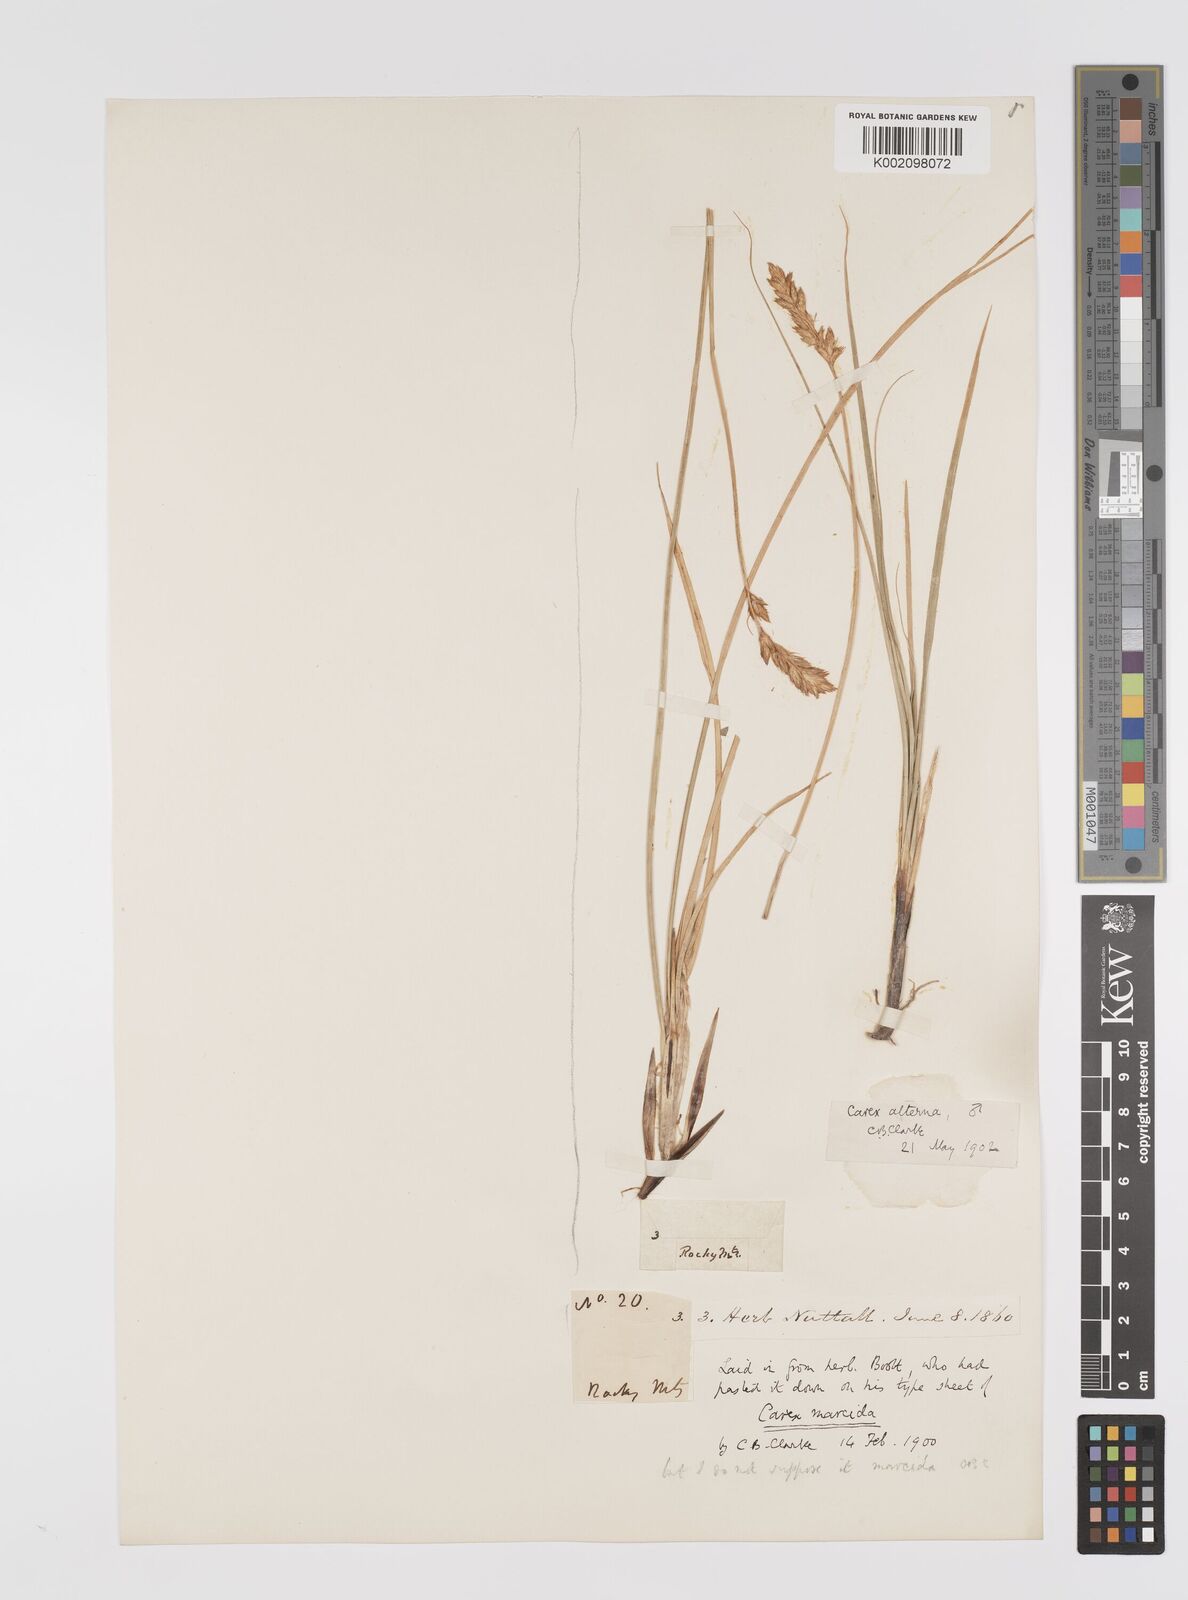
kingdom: Plantae
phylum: Tracheophyta
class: Liliopsida
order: Poales
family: Cyperaceae
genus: Carex
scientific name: Carex praegracilis
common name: Black creeper sedge
